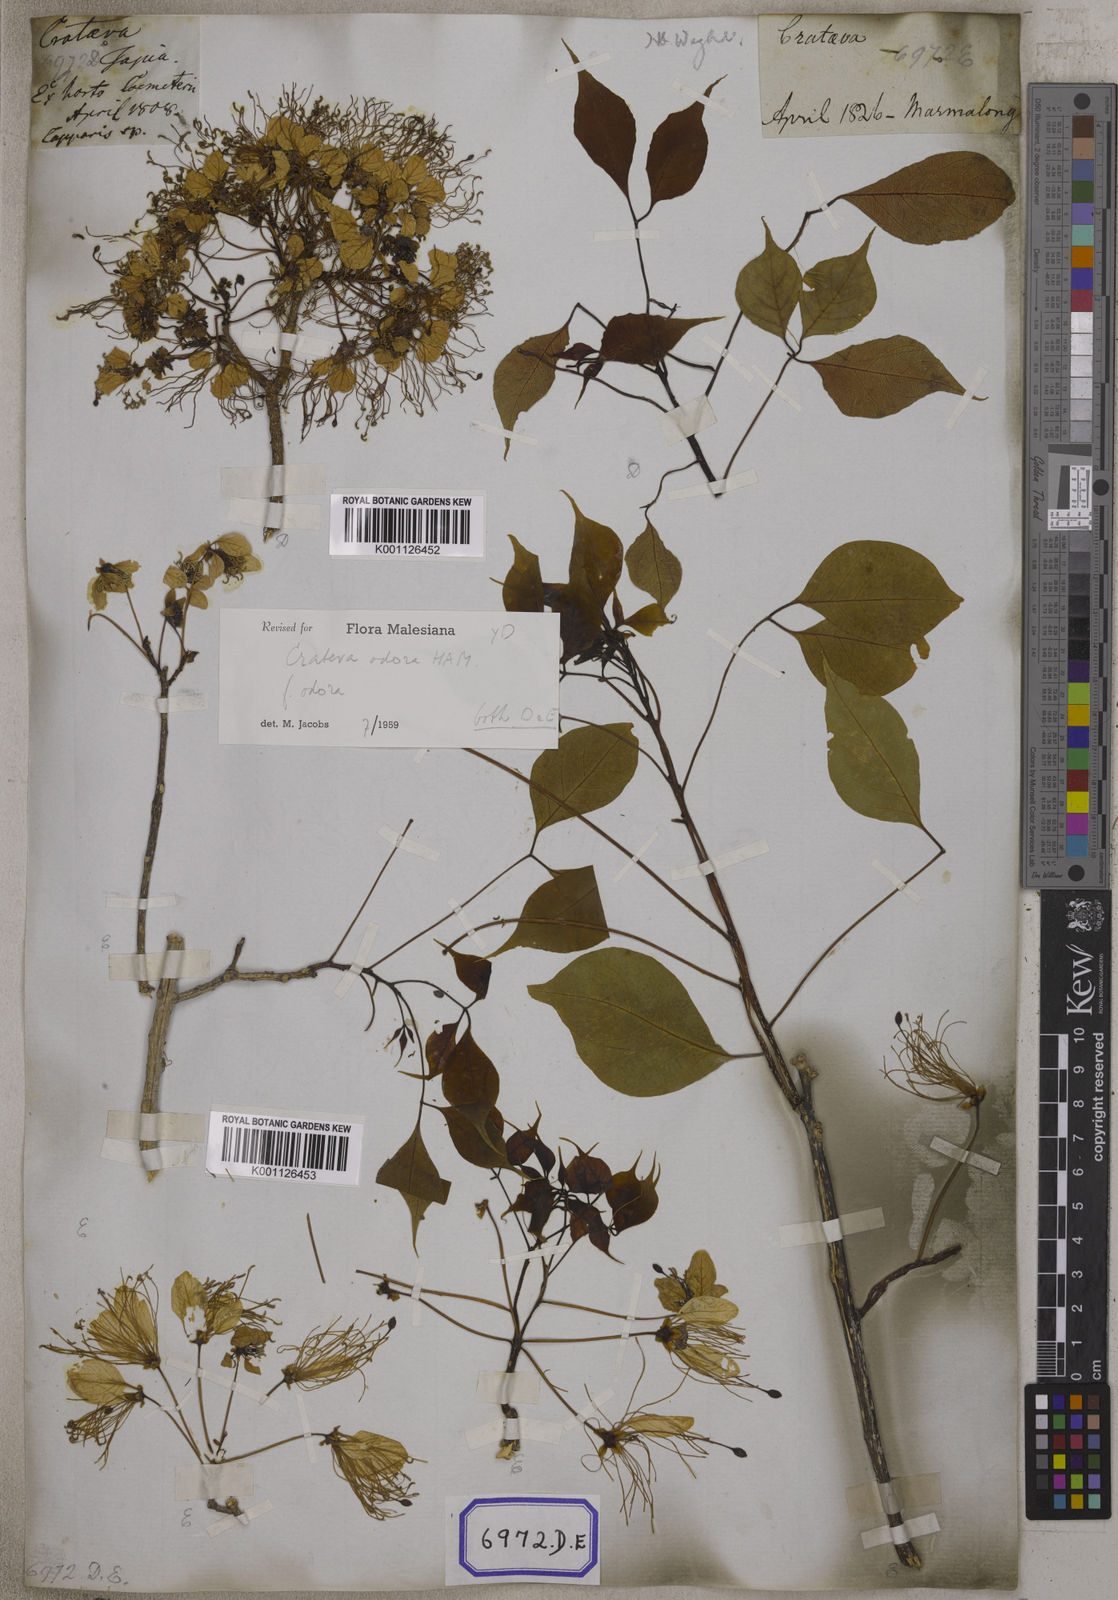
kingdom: Plantae
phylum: Tracheophyta
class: Magnoliopsida
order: Brassicales
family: Capparaceae
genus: Crateva
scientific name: Crateva religiosa
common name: March dalur
